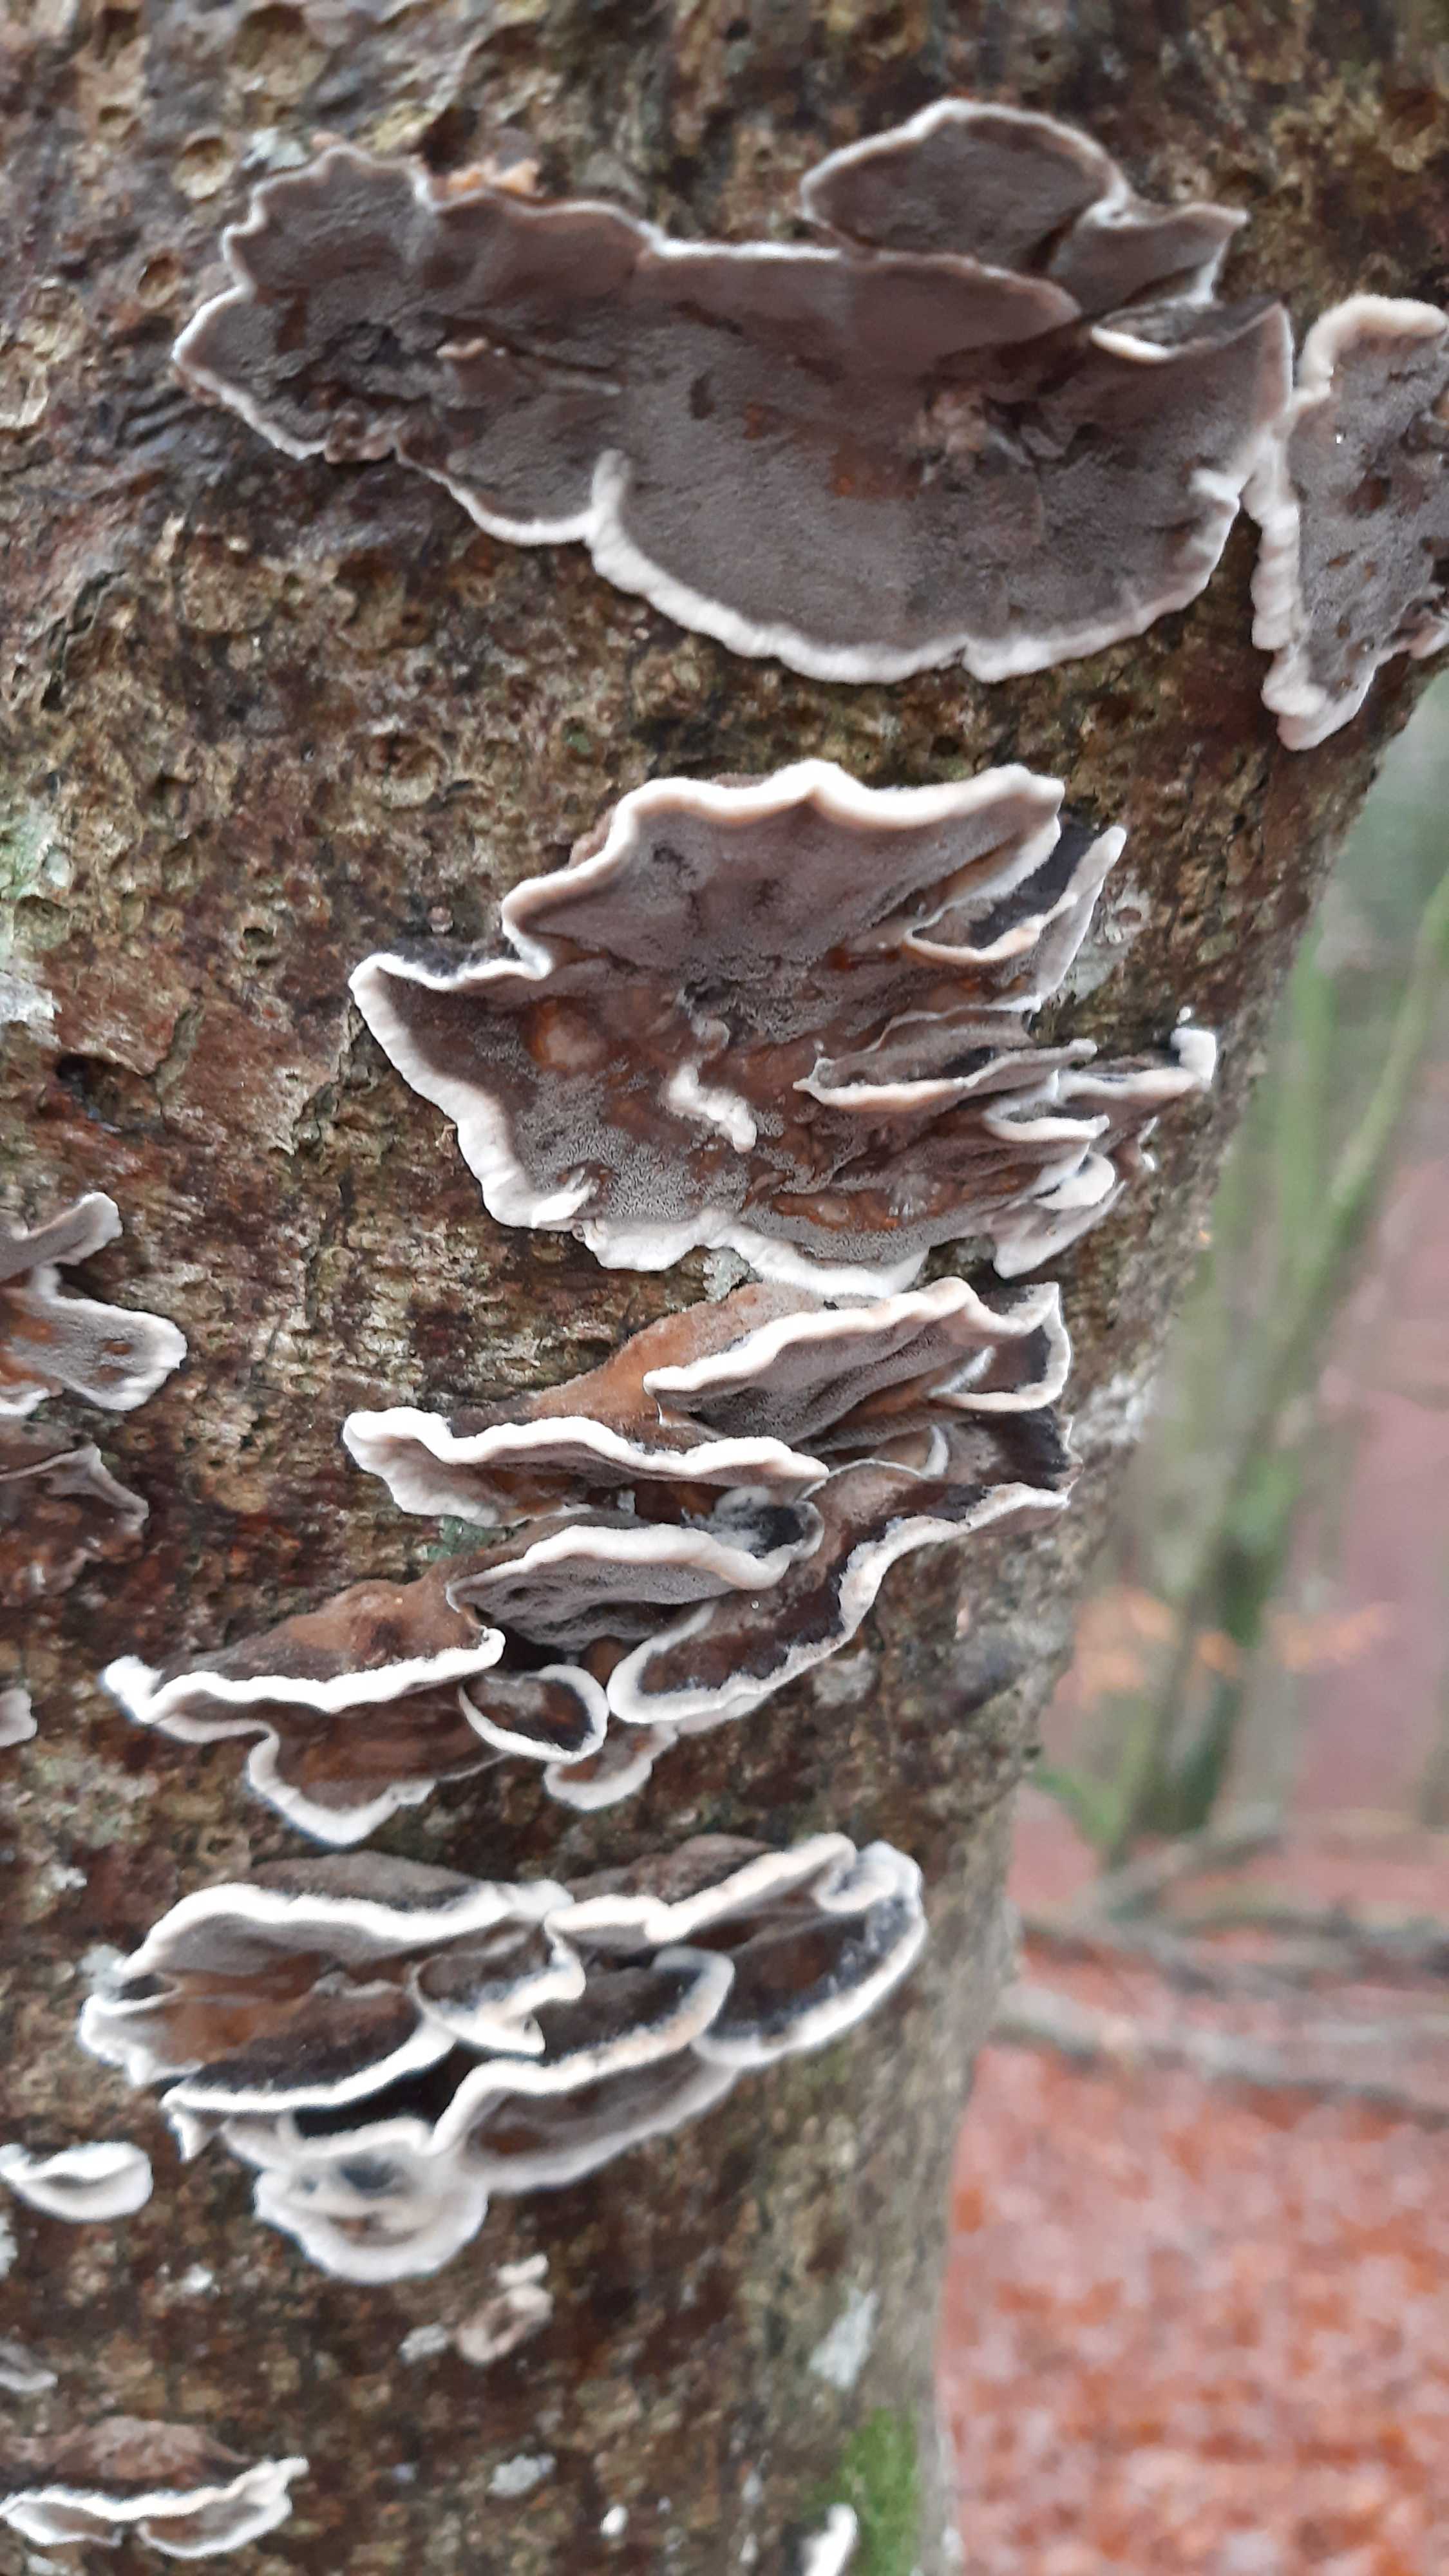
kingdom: Fungi
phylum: Basidiomycota
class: Agaricomycetes
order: Polyporales
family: Phanerochaetaceae
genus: Bjerkandera
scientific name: Bjerkandera adusta
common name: sveden sodporesvamp
